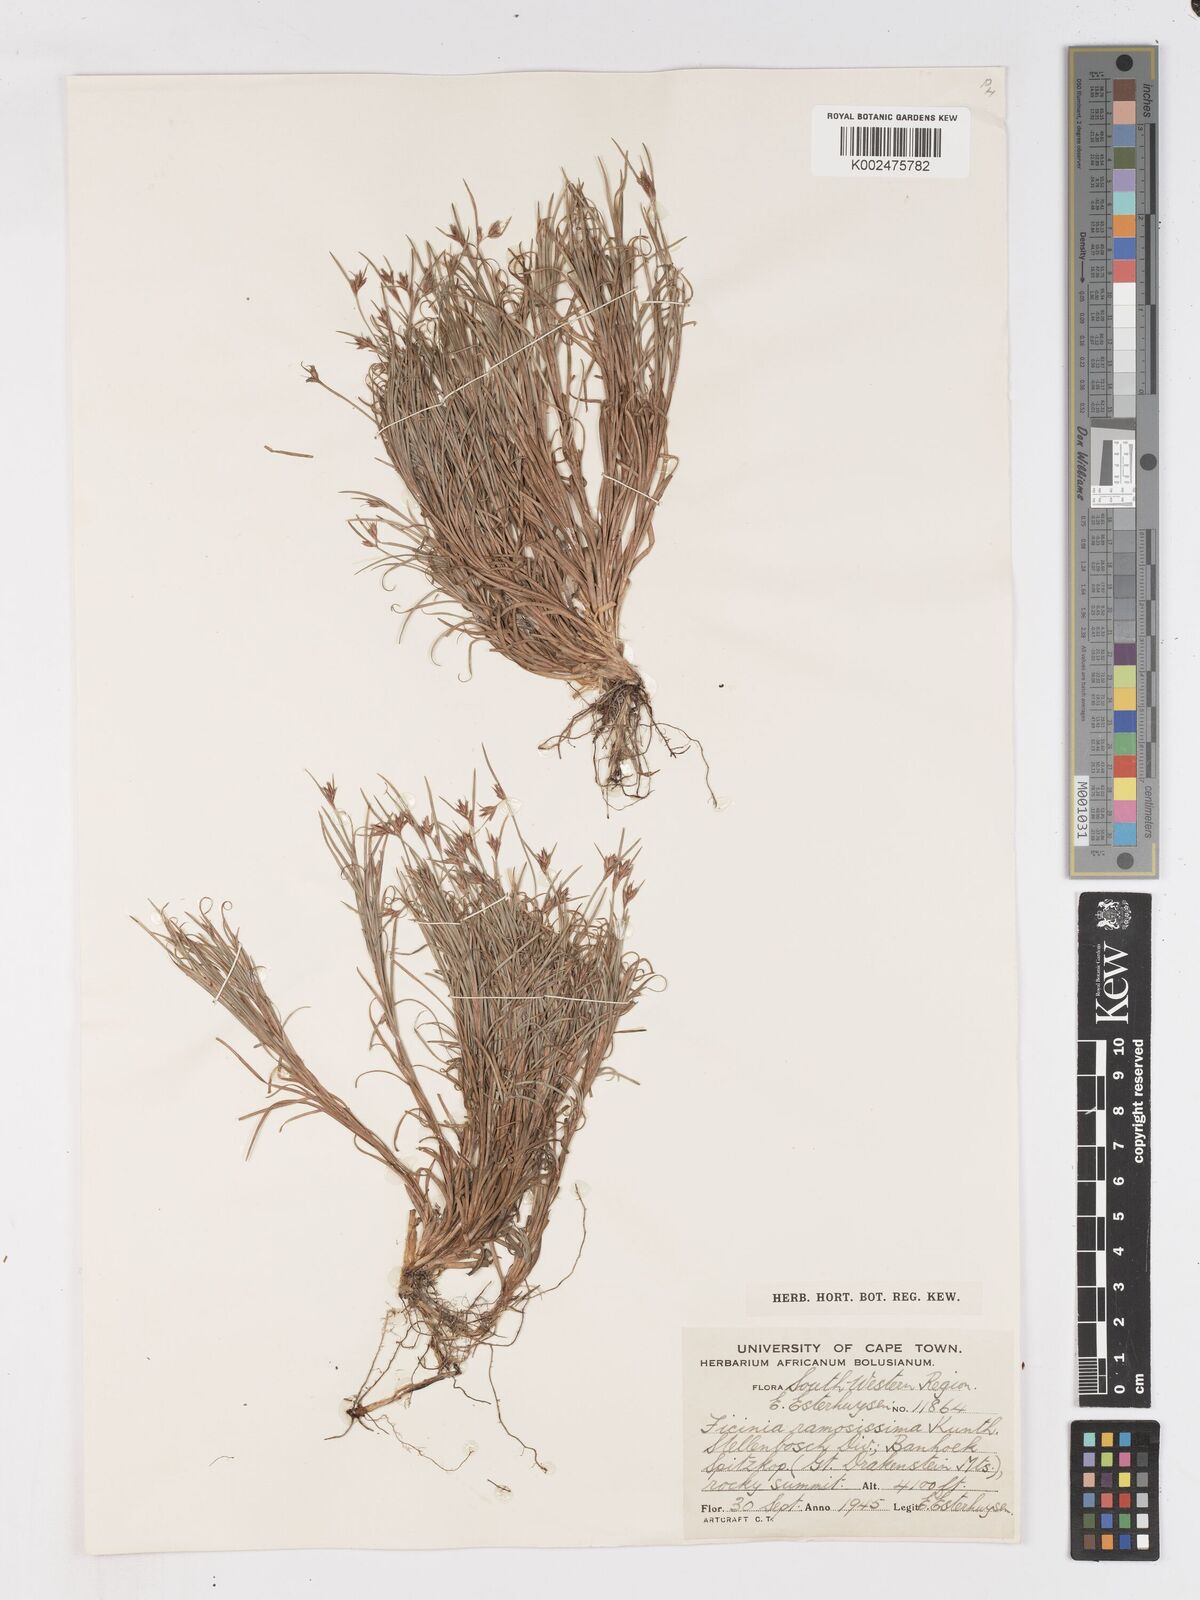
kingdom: Plantae
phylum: Tracheophyta
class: Liliopsida
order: Poales
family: Cyperaceae
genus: Ficinia
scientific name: Ficinia ramosissima
